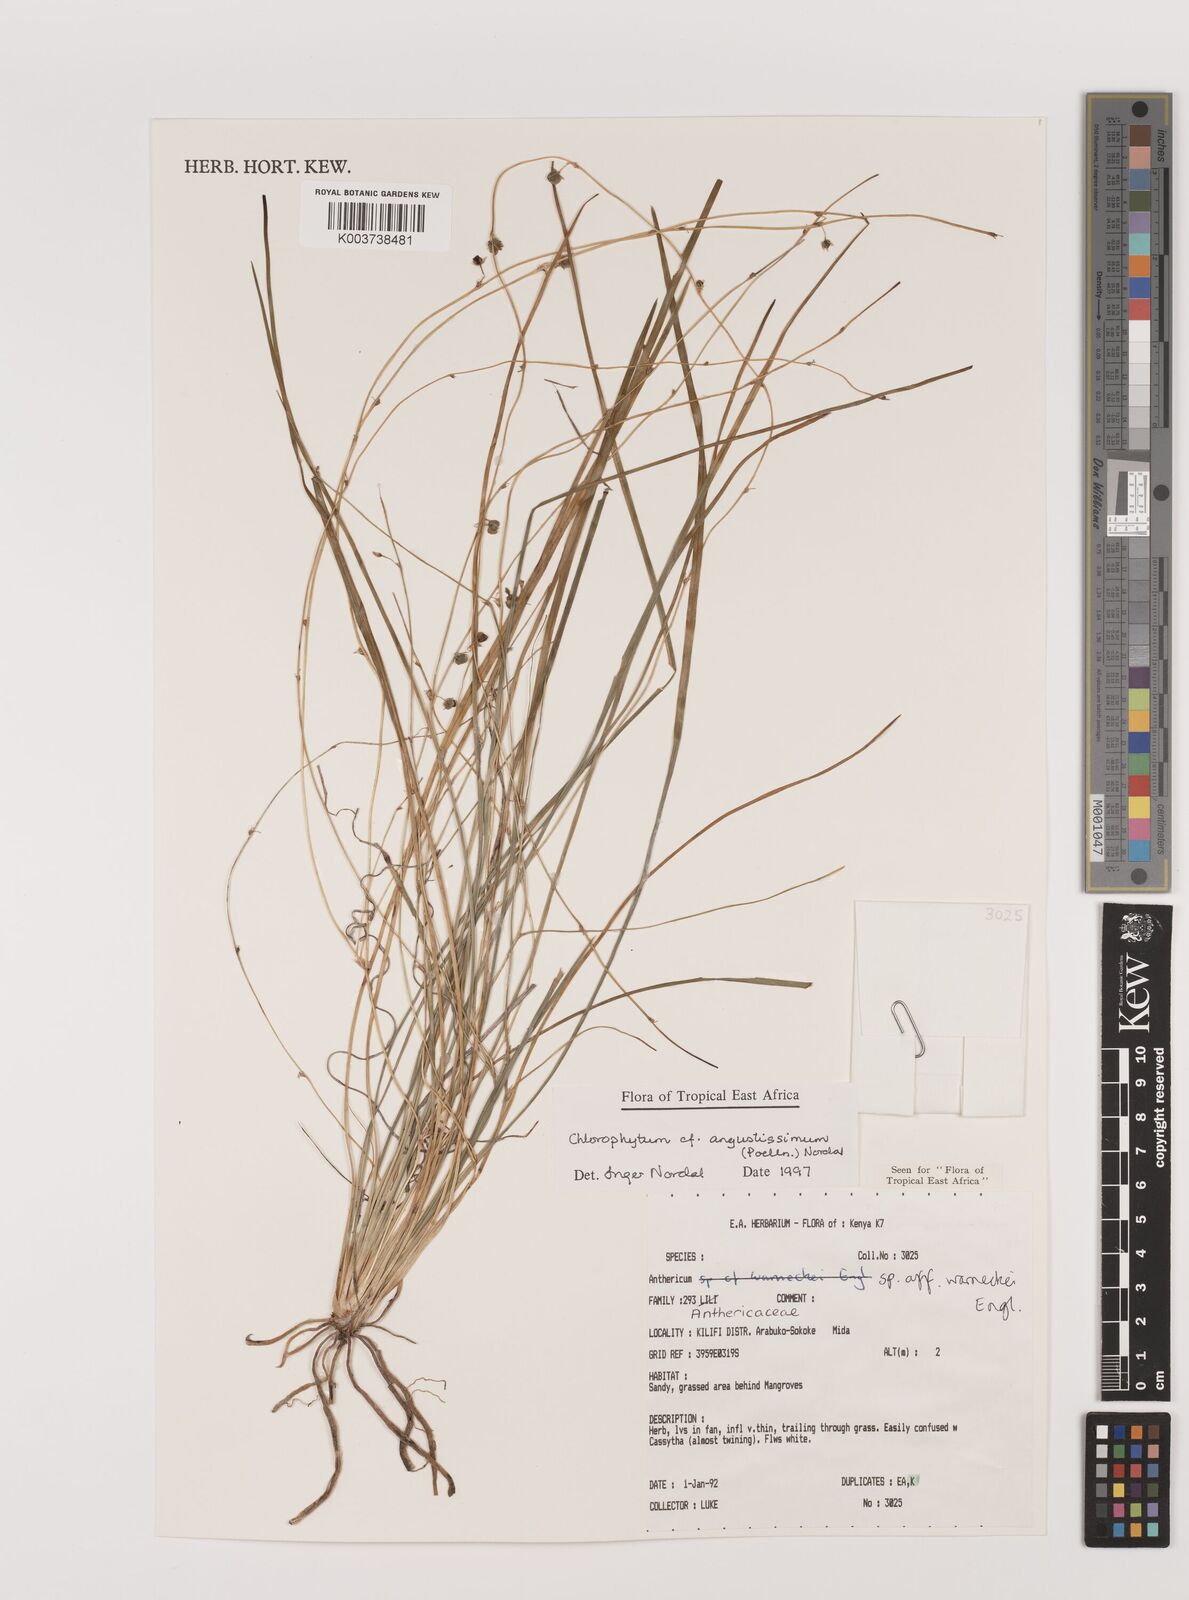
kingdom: Plantae
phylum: Tracheophyta
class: Liliopsida
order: Asparagales
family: Asparagaceae
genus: Chlorophytum
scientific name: Chlorophytum angustissimum
